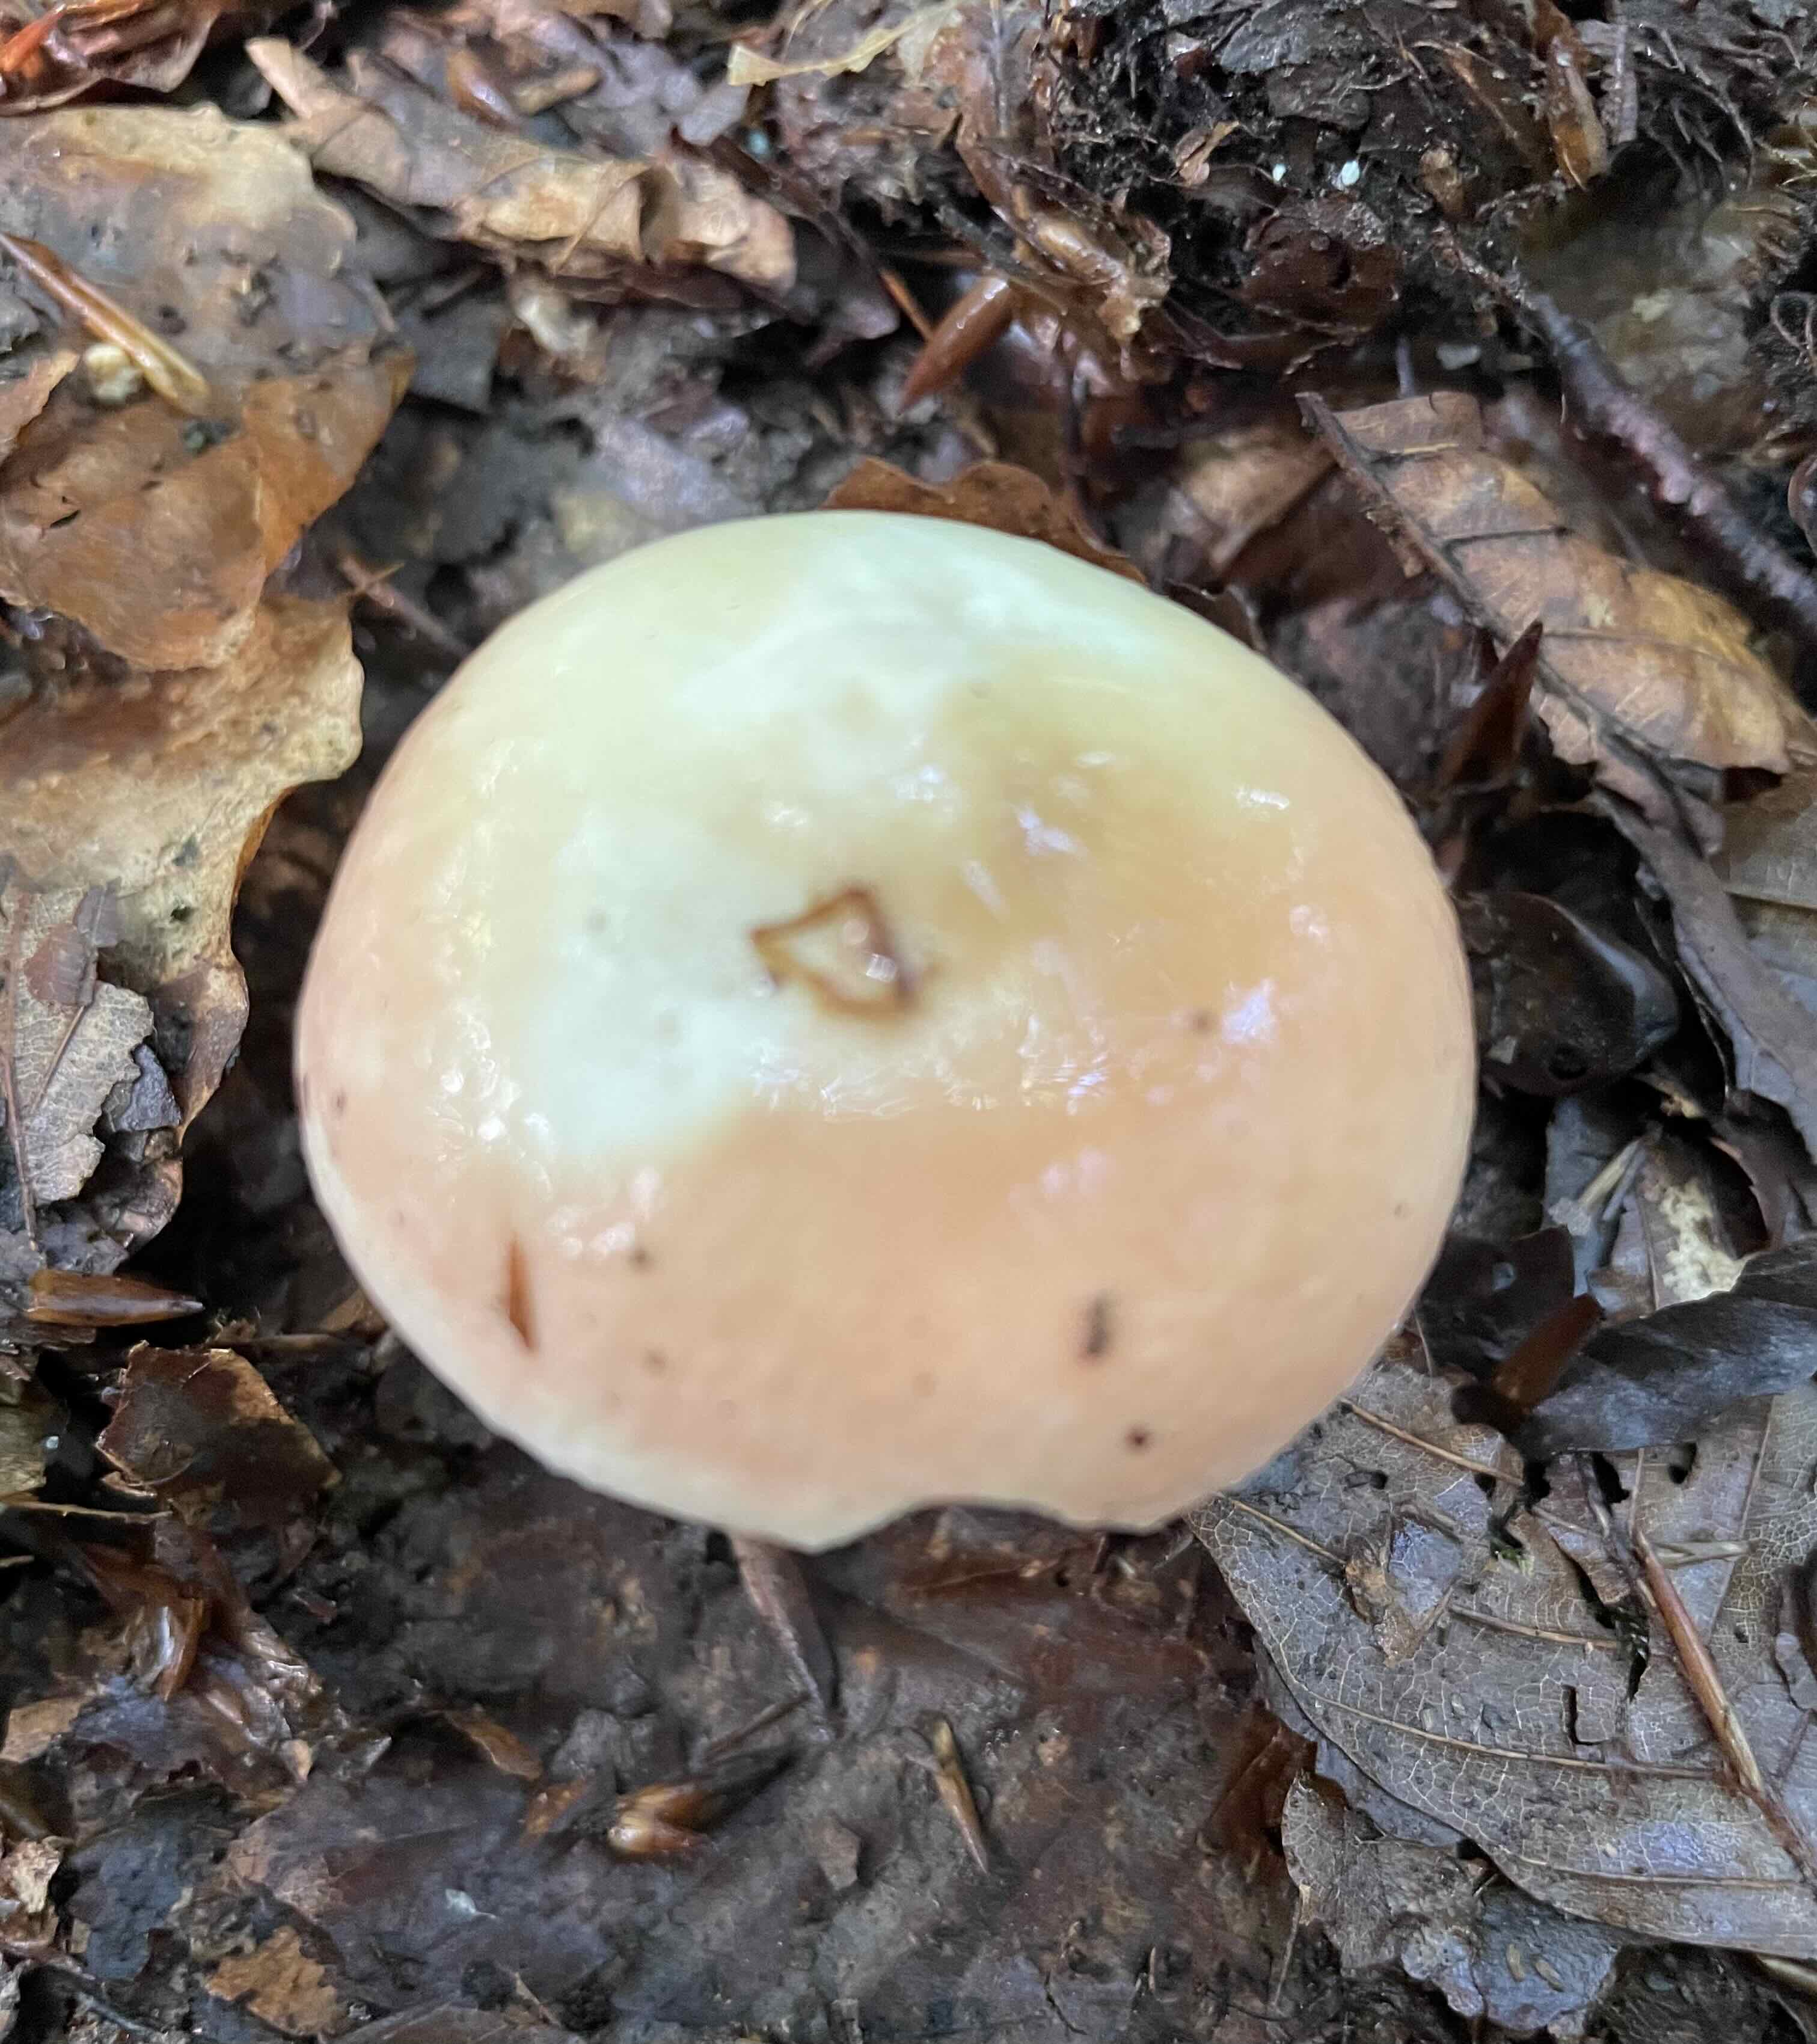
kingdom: Fungi
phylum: Basidiomycota
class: Agaricomycetes
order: Russulales
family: Russulaceae
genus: Russula
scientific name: Russula
